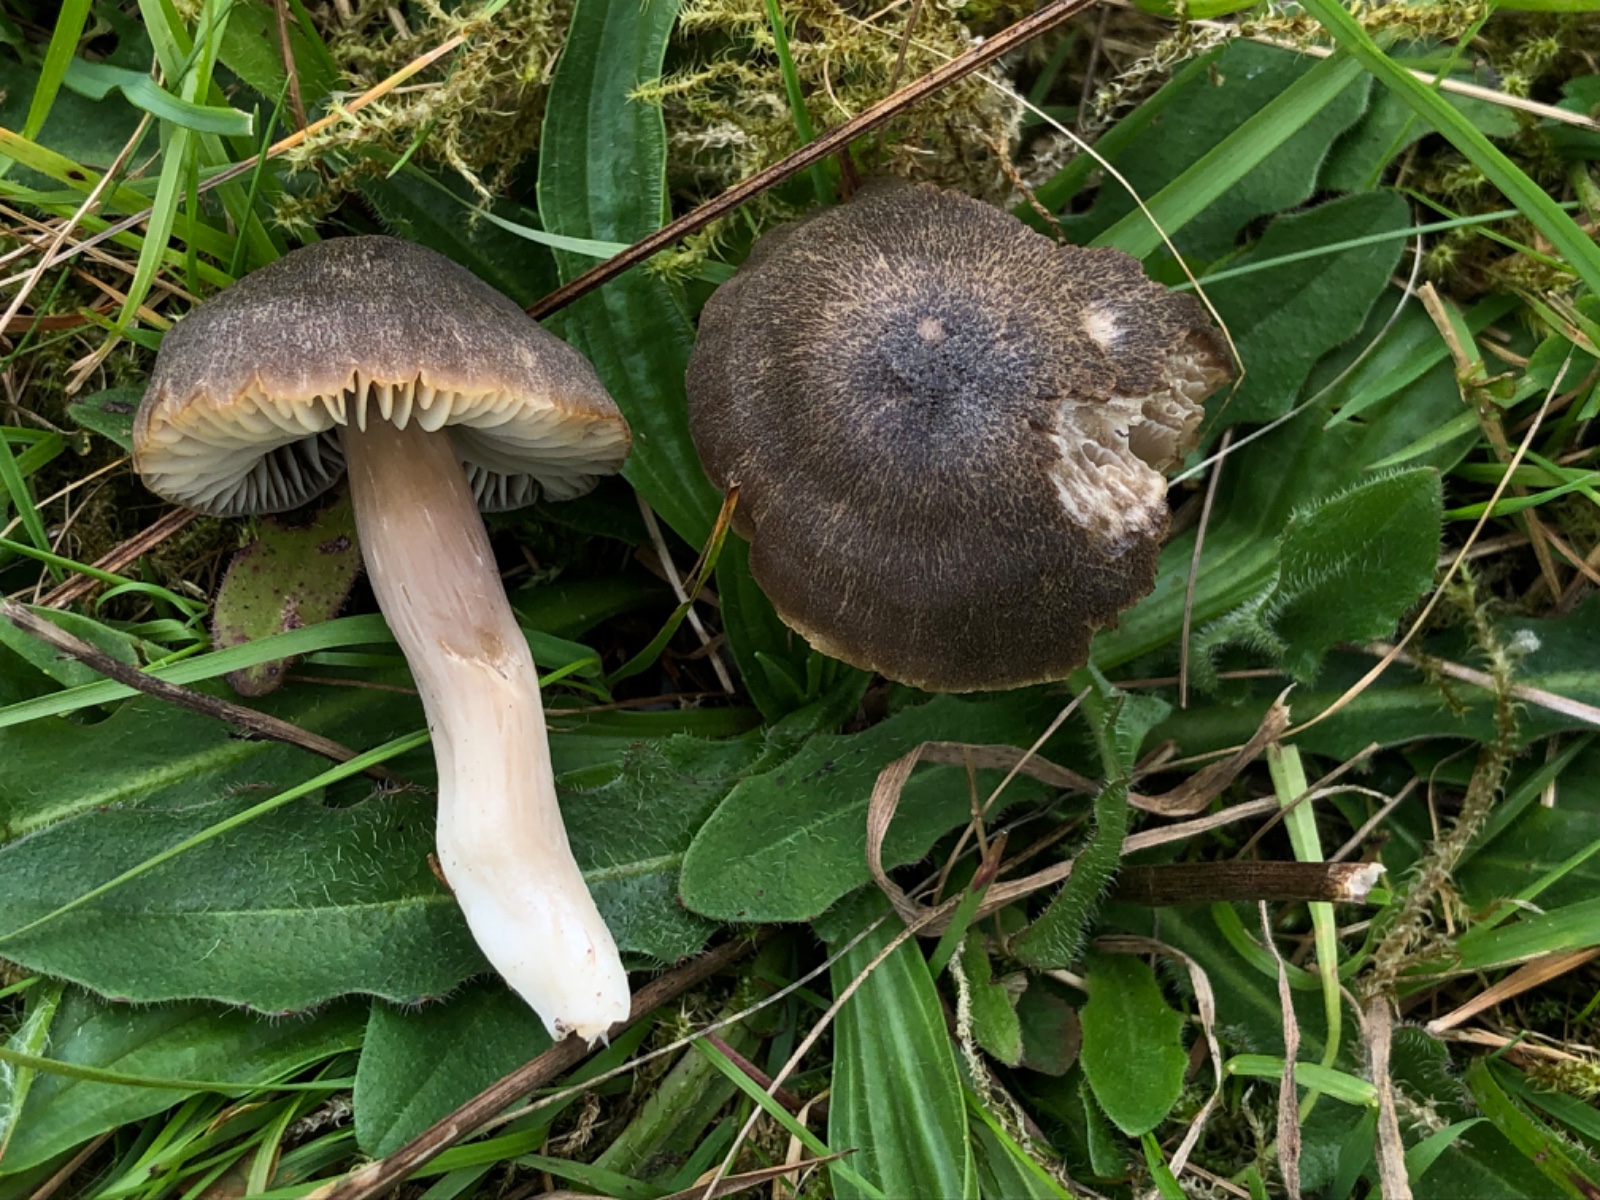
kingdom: Fungi
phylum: Basidiomycota
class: Agaricomycetes
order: Agaricales
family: Hygrophoraceae
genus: Neohygrocybe
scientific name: Neohygrocybe nitrata
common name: stinkende vokshat
